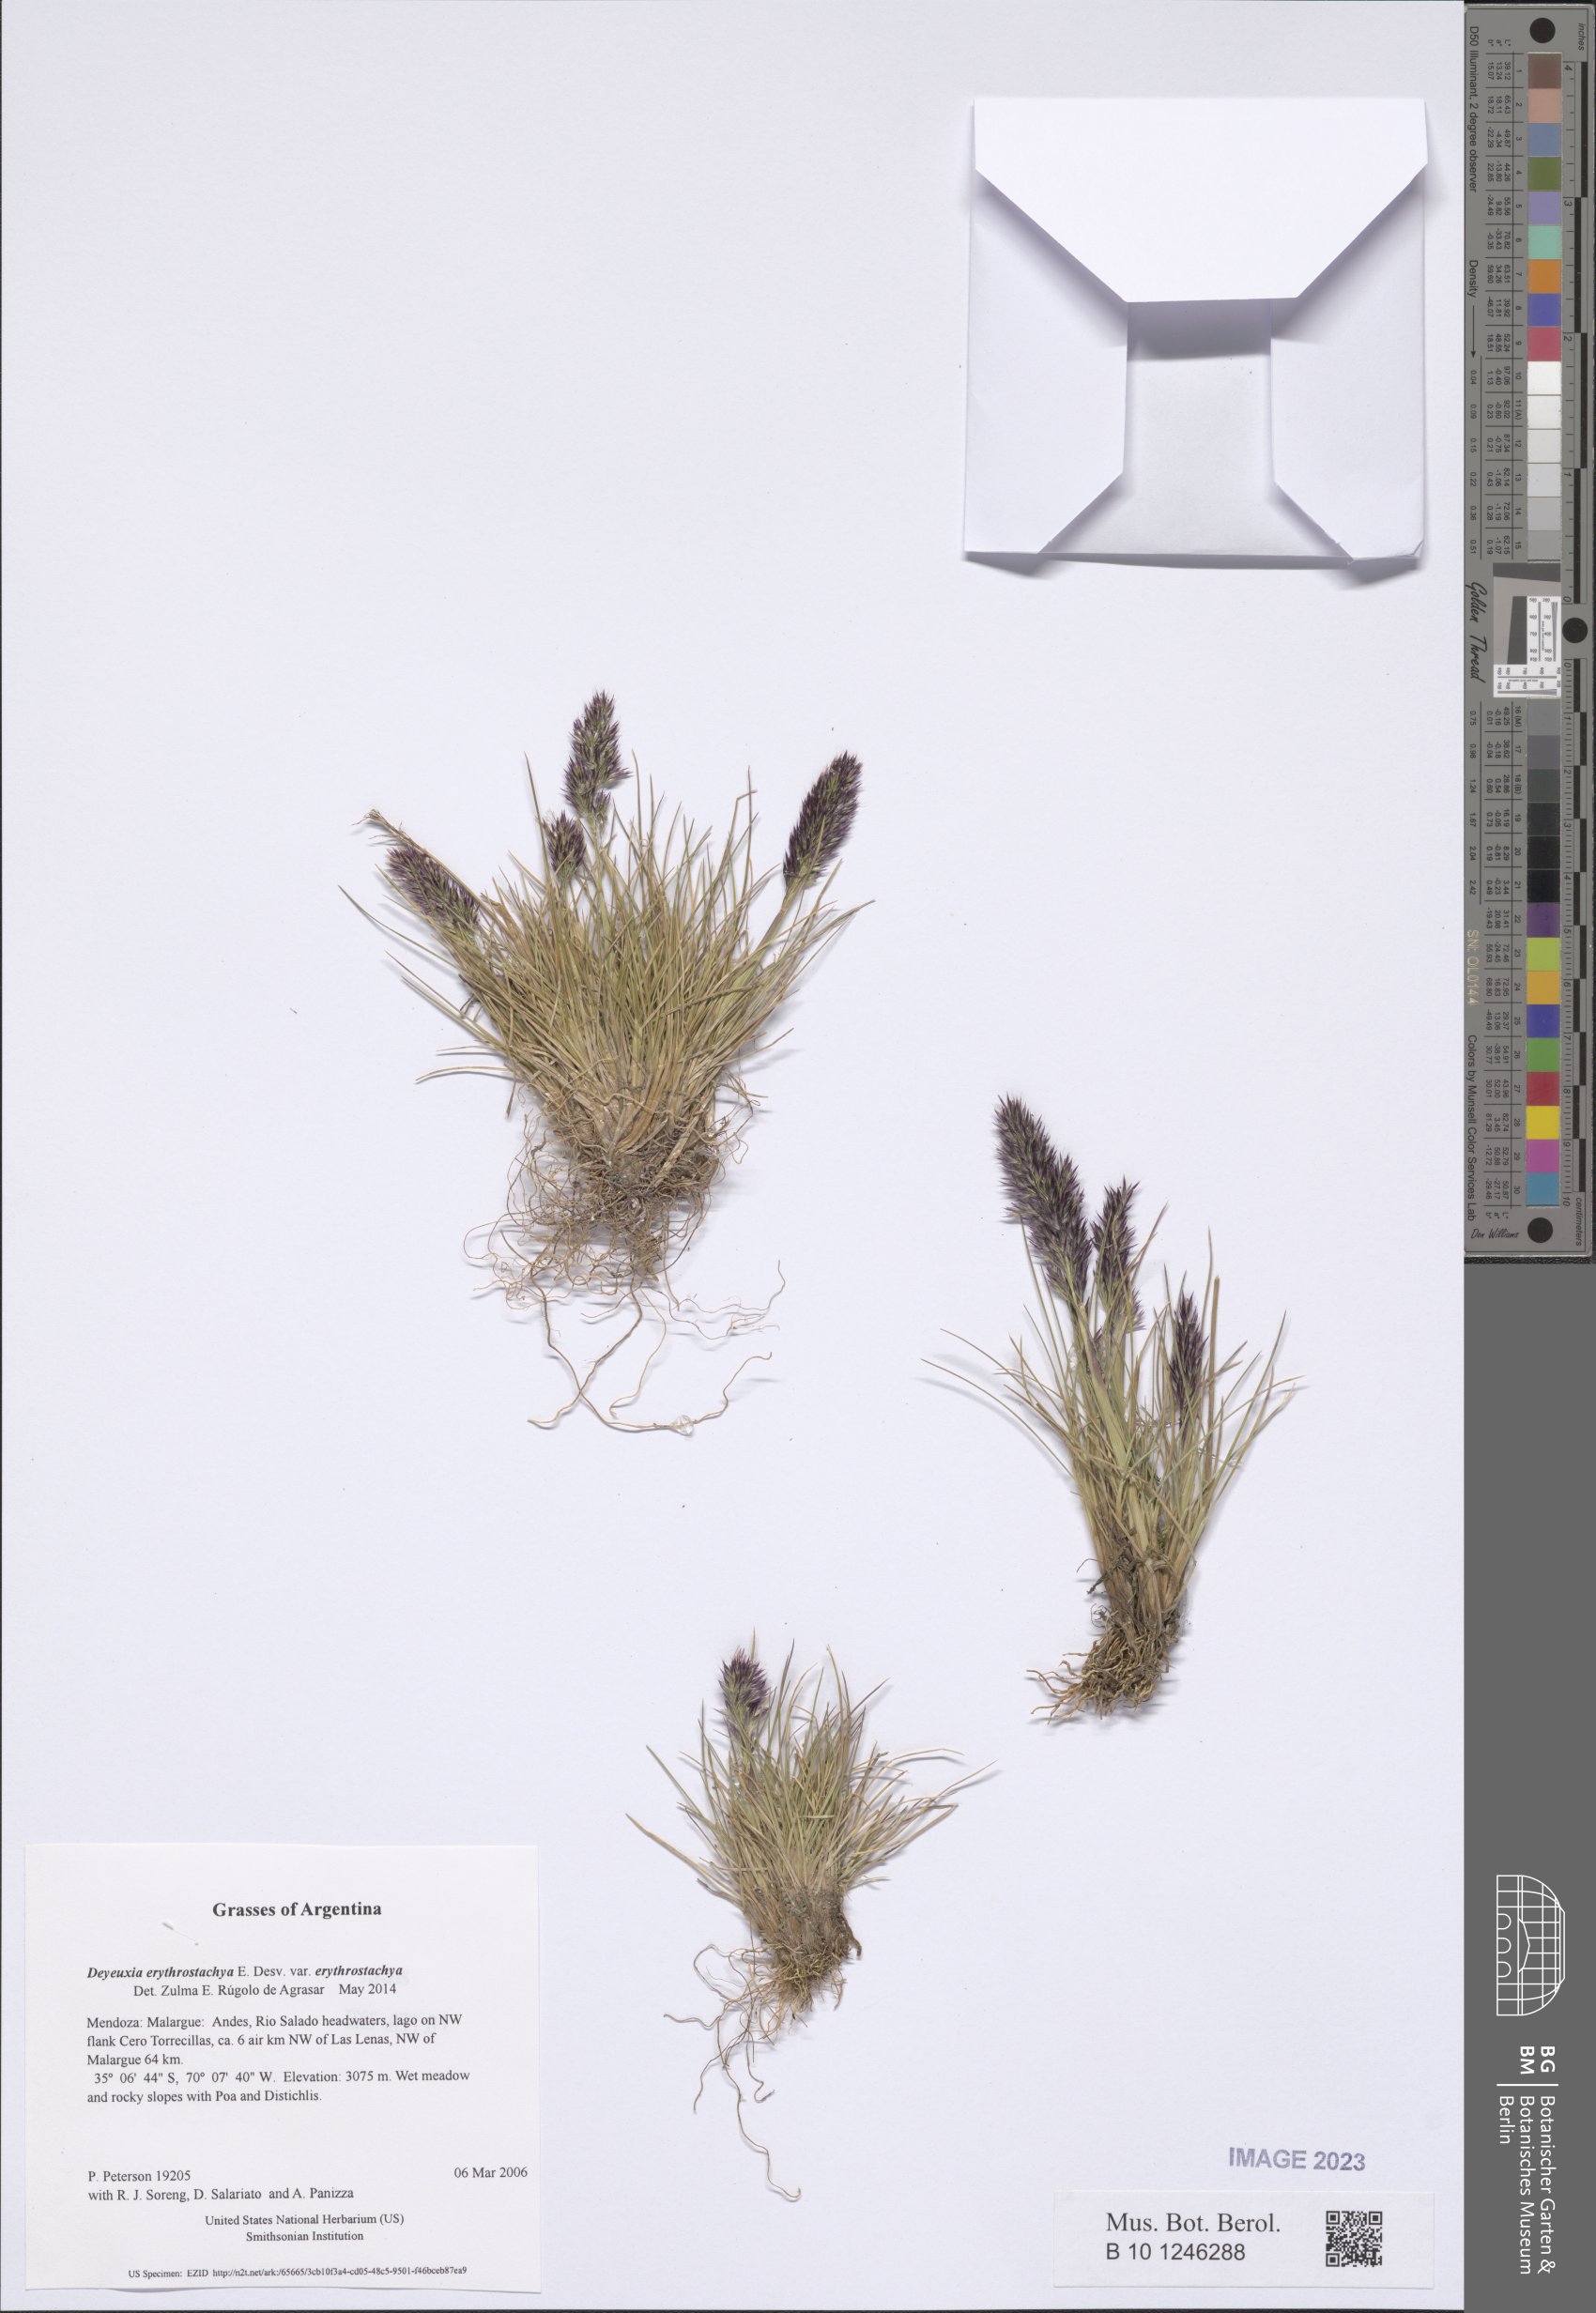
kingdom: Plantae
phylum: Tracheophyta
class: Liliopsida
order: Poales
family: Poaceae
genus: Deschampsia
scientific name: Deschampsia gayana
